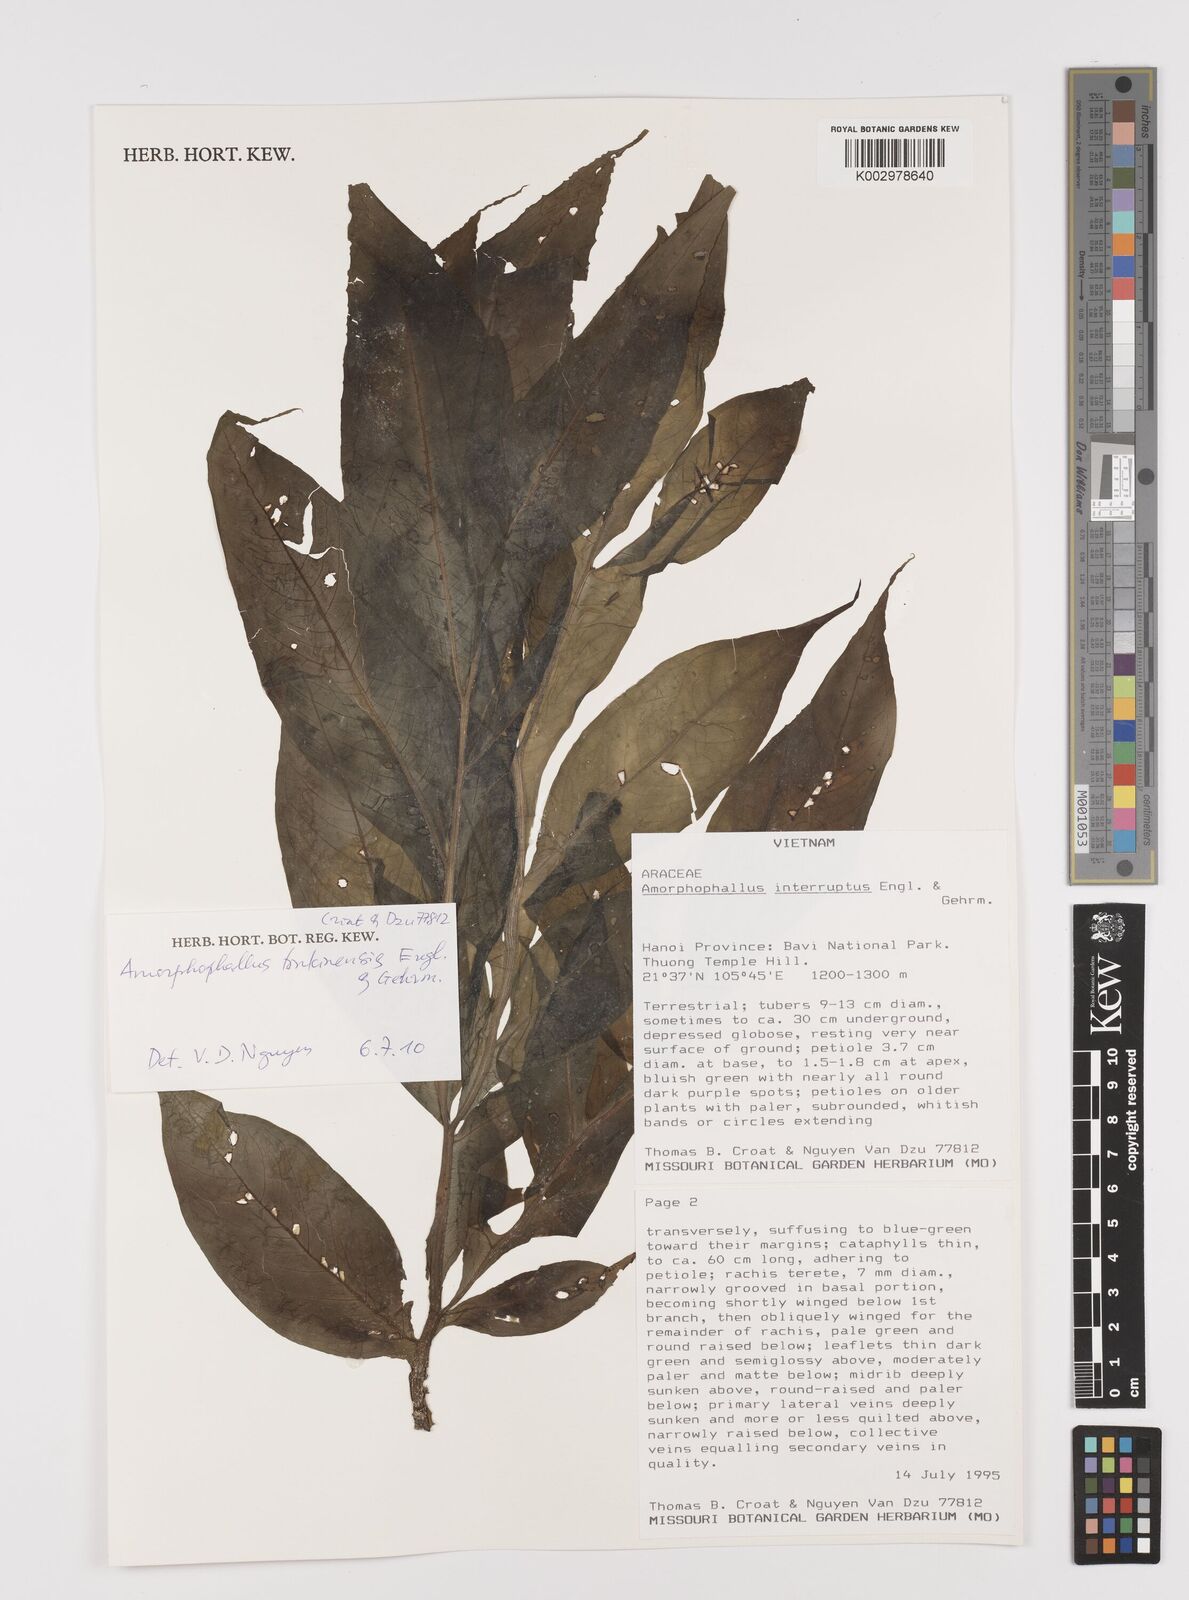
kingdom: Plantae
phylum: Tracheophyta
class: Liliopsida
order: Alismatales
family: Araceae
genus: Amorphophallus
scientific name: Amorphophallus interruptus
